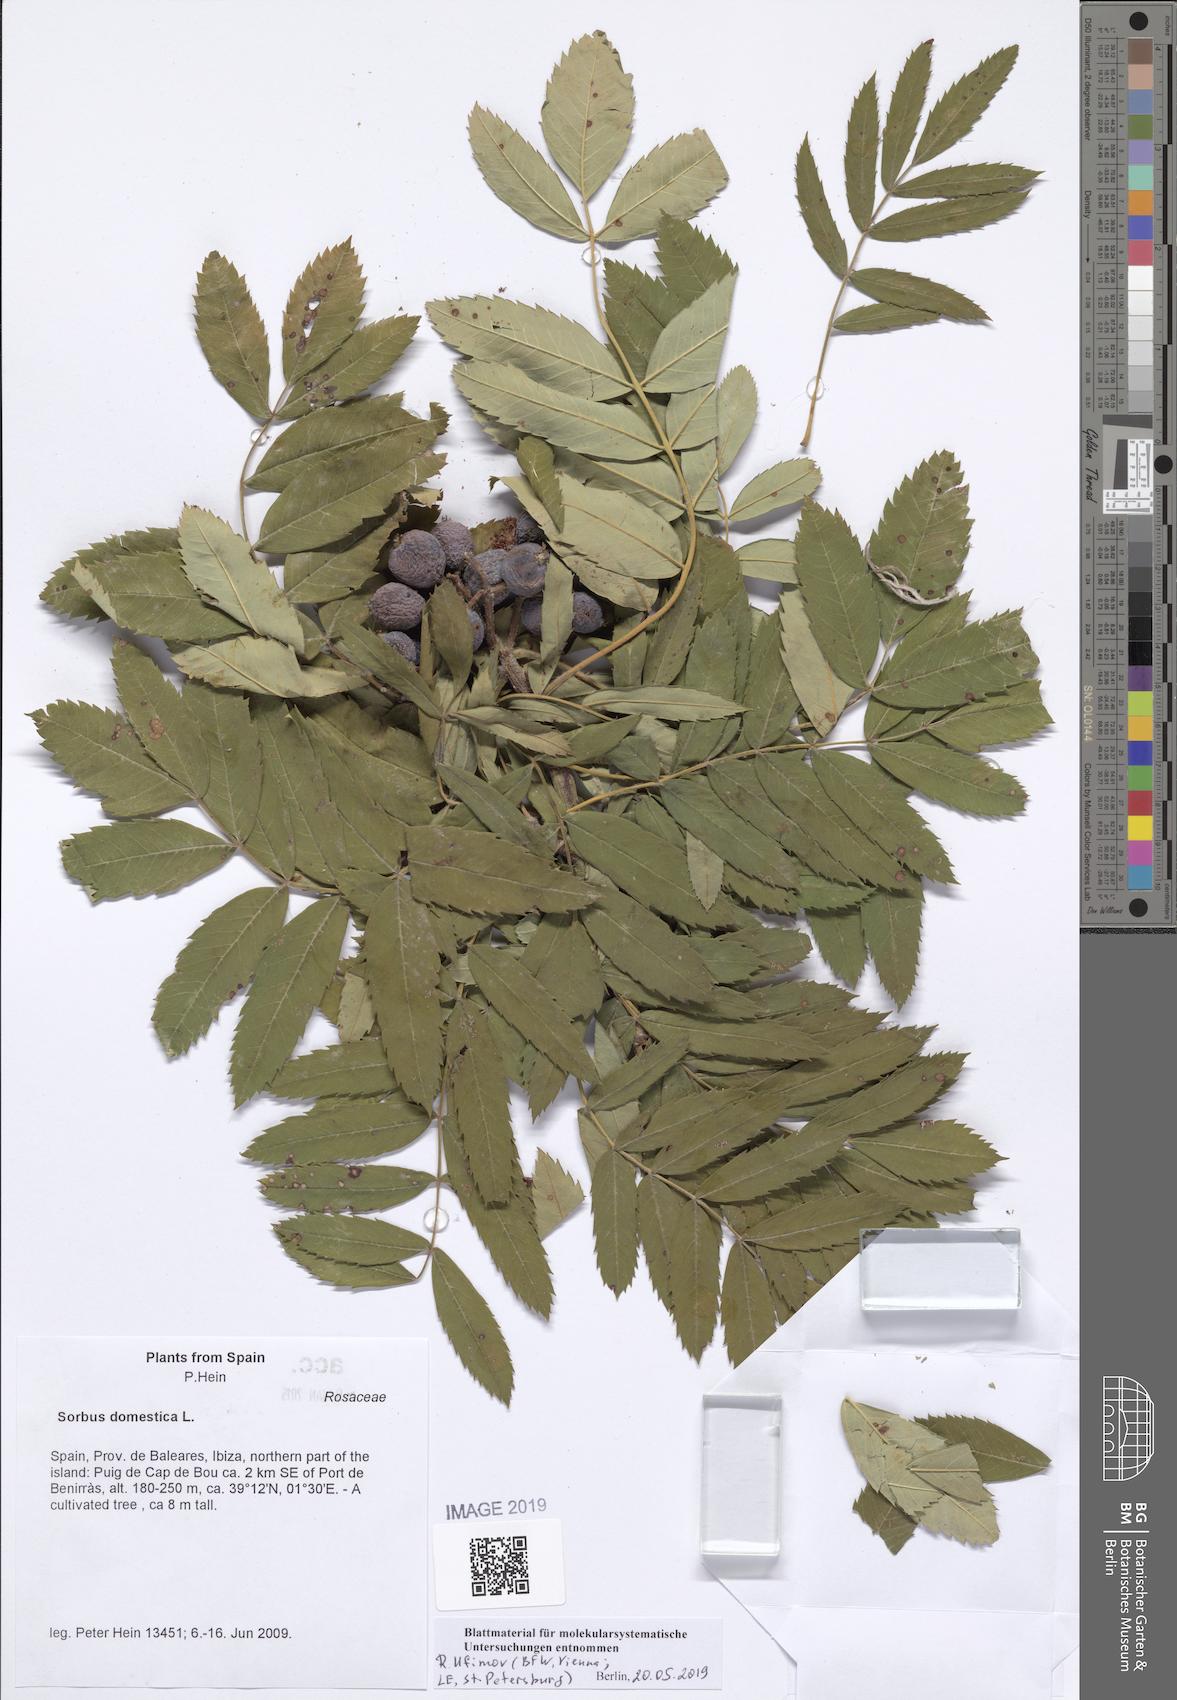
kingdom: Plantae
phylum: Tracheophyta
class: Magnoliopsida
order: Rosales
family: Rosaceae
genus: Cormus
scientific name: Cormus domestica
